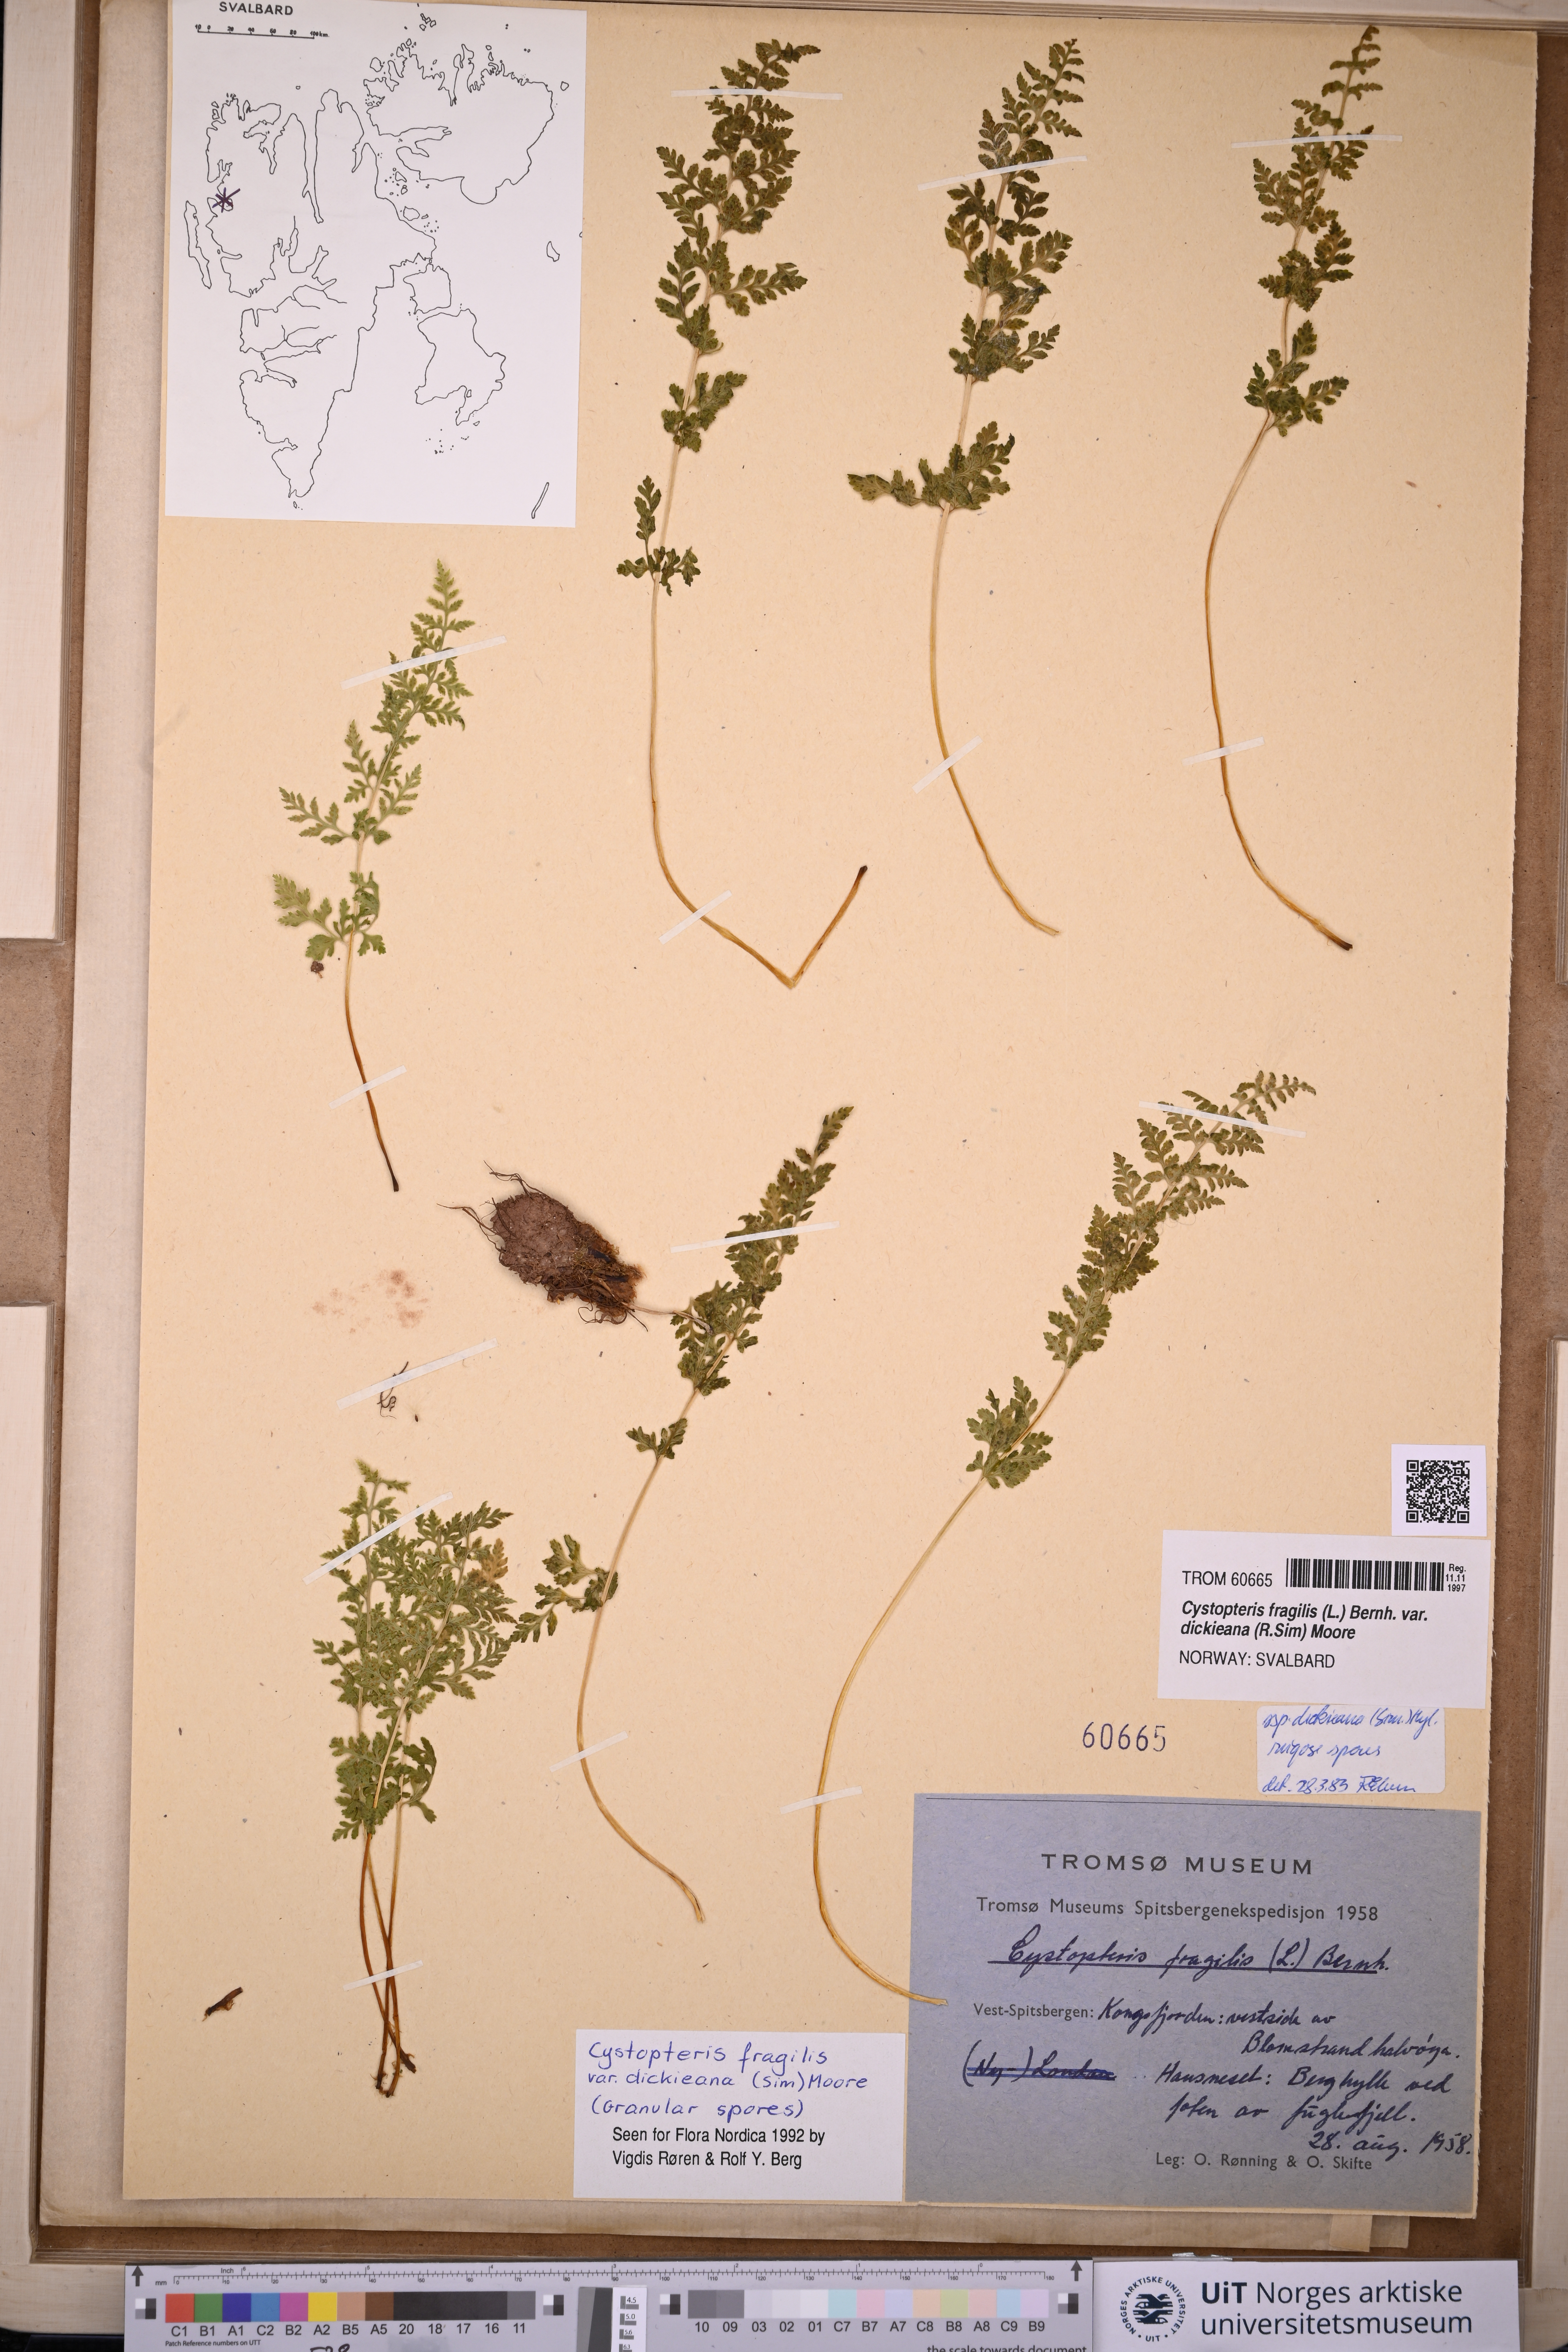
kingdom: Plantae
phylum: Tracheophyta
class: Polypodiopsida
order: Polypodiales
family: Cystopteridaceae
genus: Cystopteris
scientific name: Cystopteris dickieana
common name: Dickie's bladder-fern
